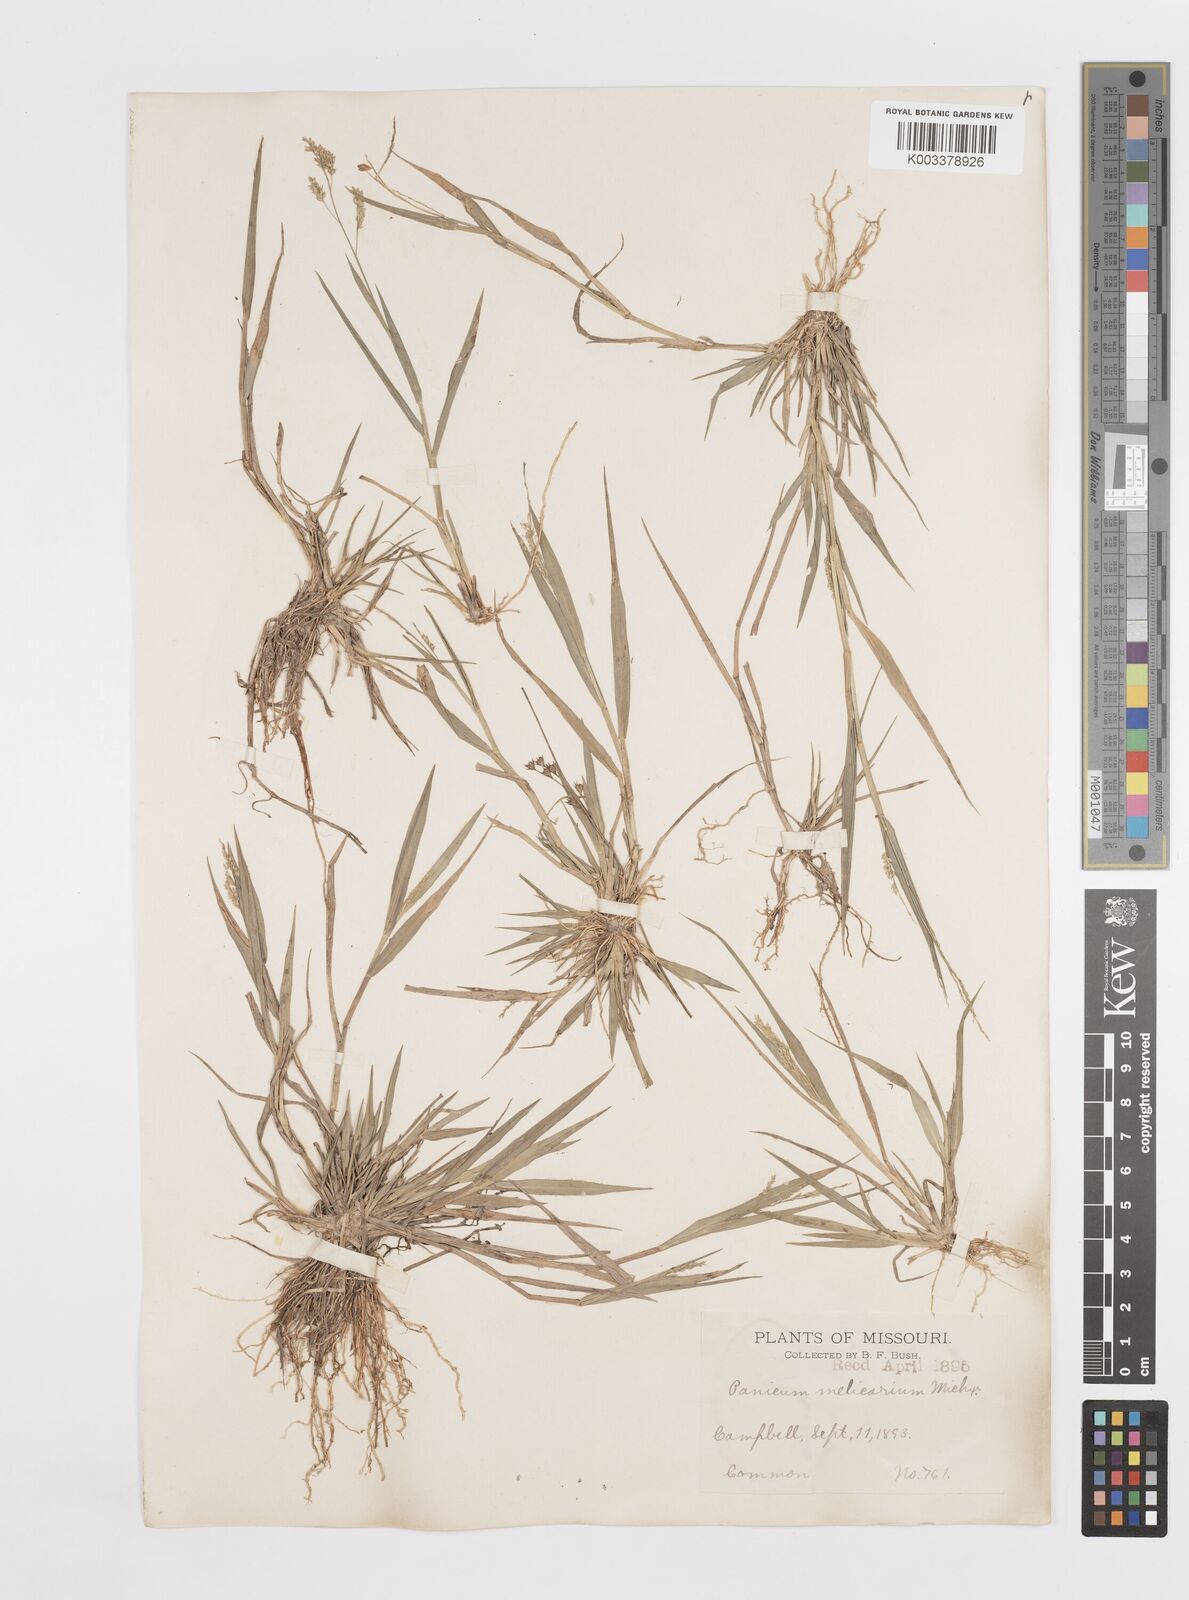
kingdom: Plantae
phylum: Tracheophyta
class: Liliopsida
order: Poales
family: Poaceae
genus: Steinchisma
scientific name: Steinchisma hians
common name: Gaping panic grass
